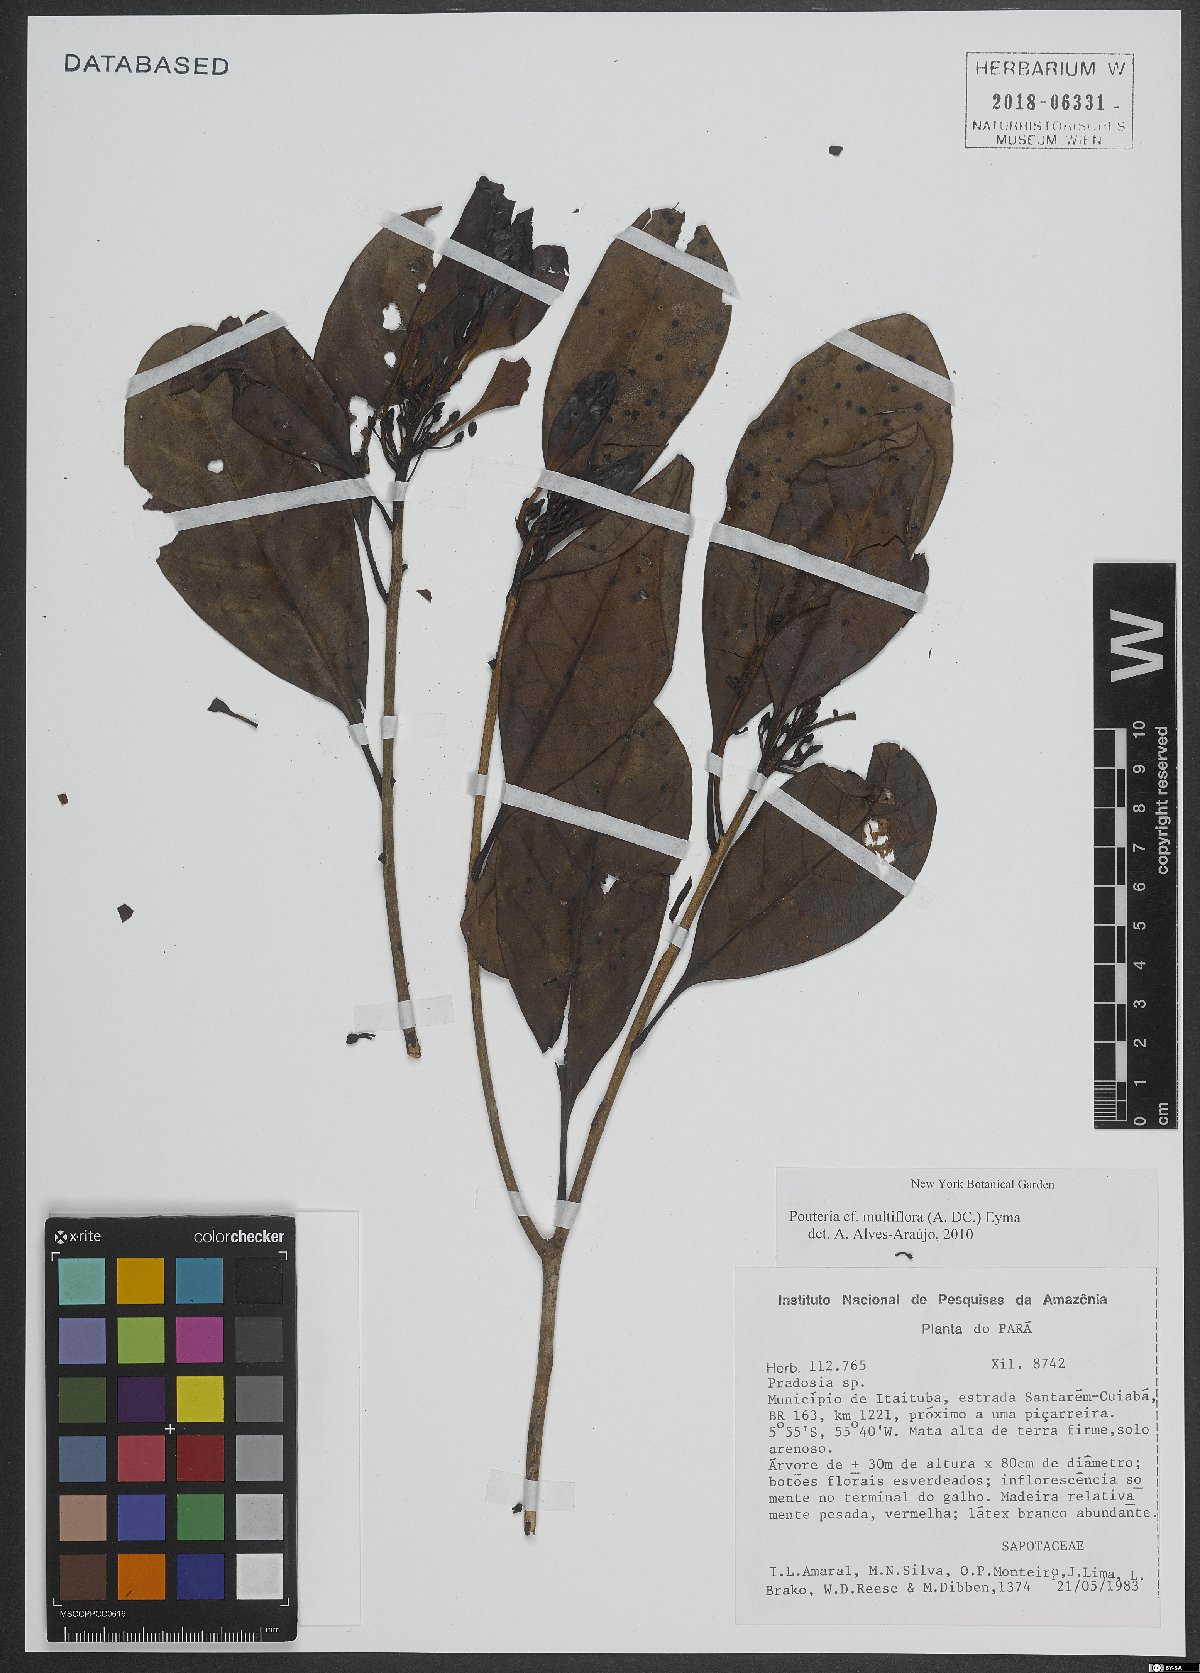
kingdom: Plantae
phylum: Tracheophyta
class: Magnoliopsida
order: Ericales
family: Sapotaceae
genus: Pouteria
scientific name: Pouteria multiflora
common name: Bullytree
